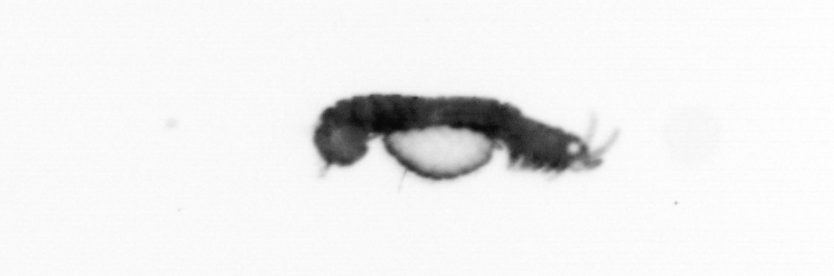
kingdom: Animalia
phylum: Annelida
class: Polychaeta
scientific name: Polychaeta
